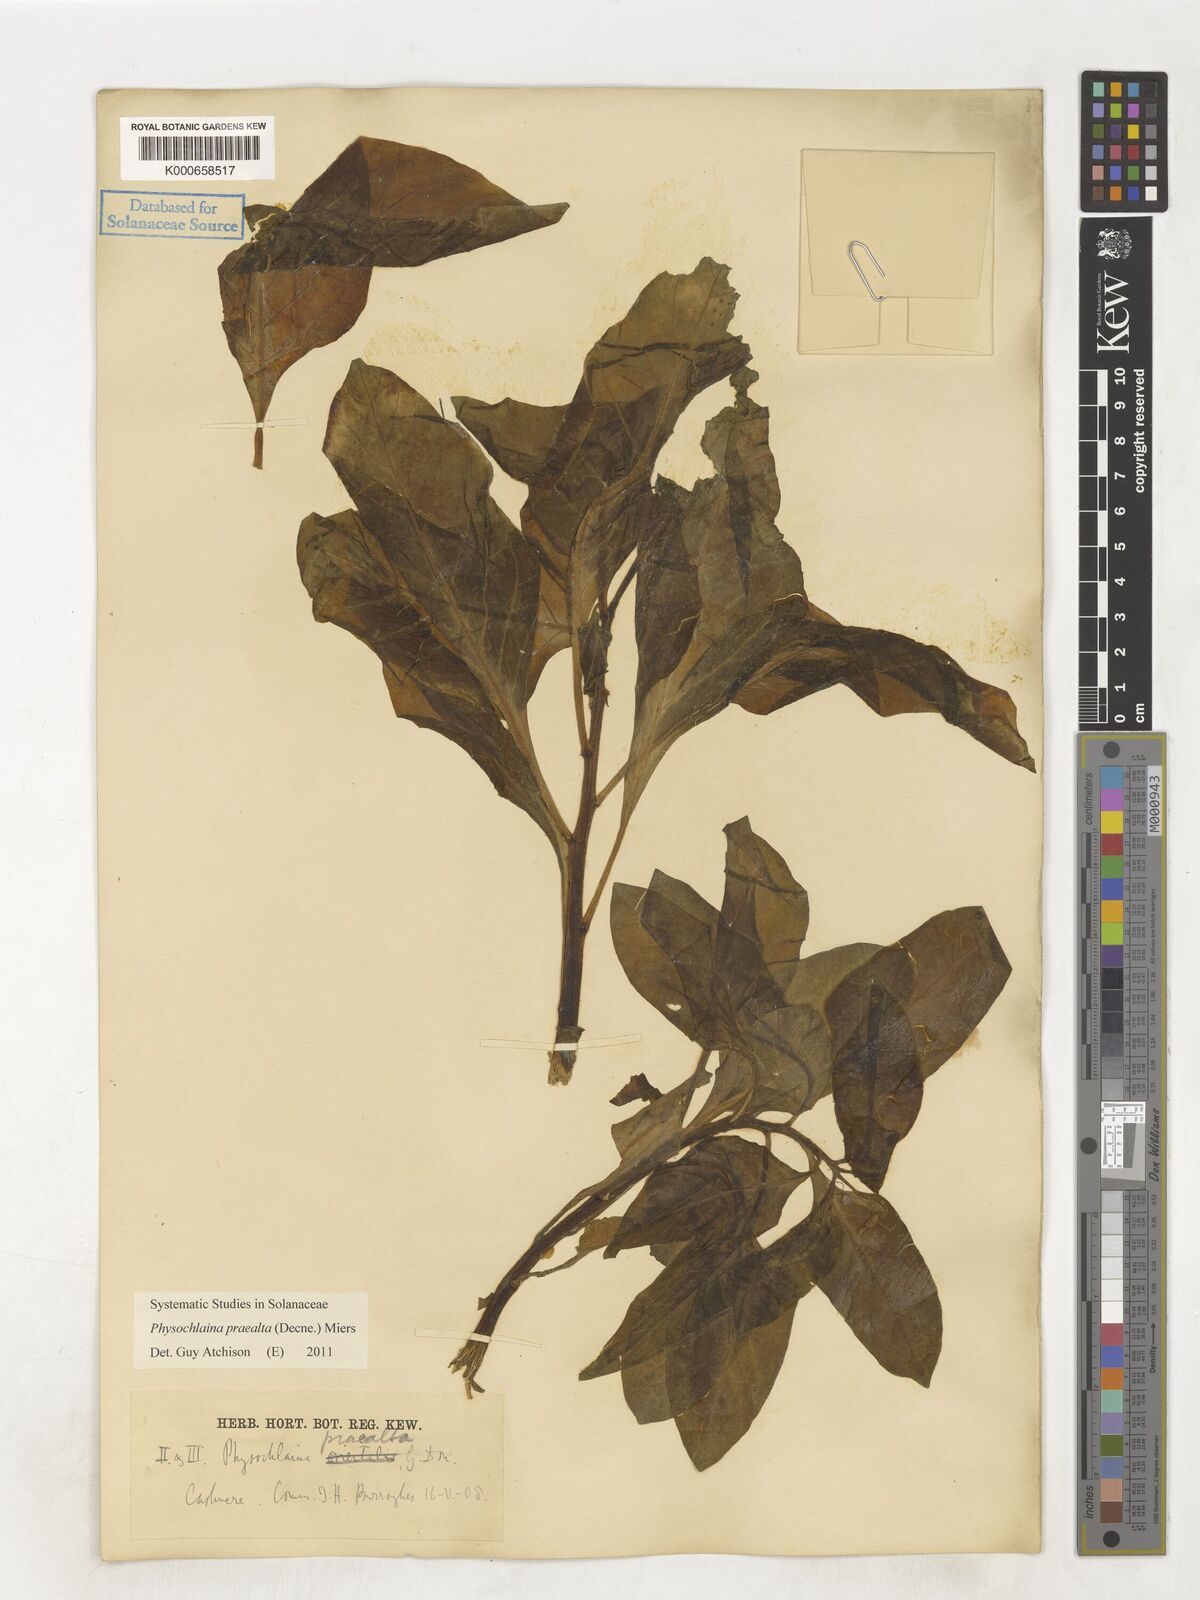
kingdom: Plantae
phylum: Tracheophyta
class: Magnoliopsida
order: Solanales
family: Solanaceae
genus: Physochlaina
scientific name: Physochlaina praealta
